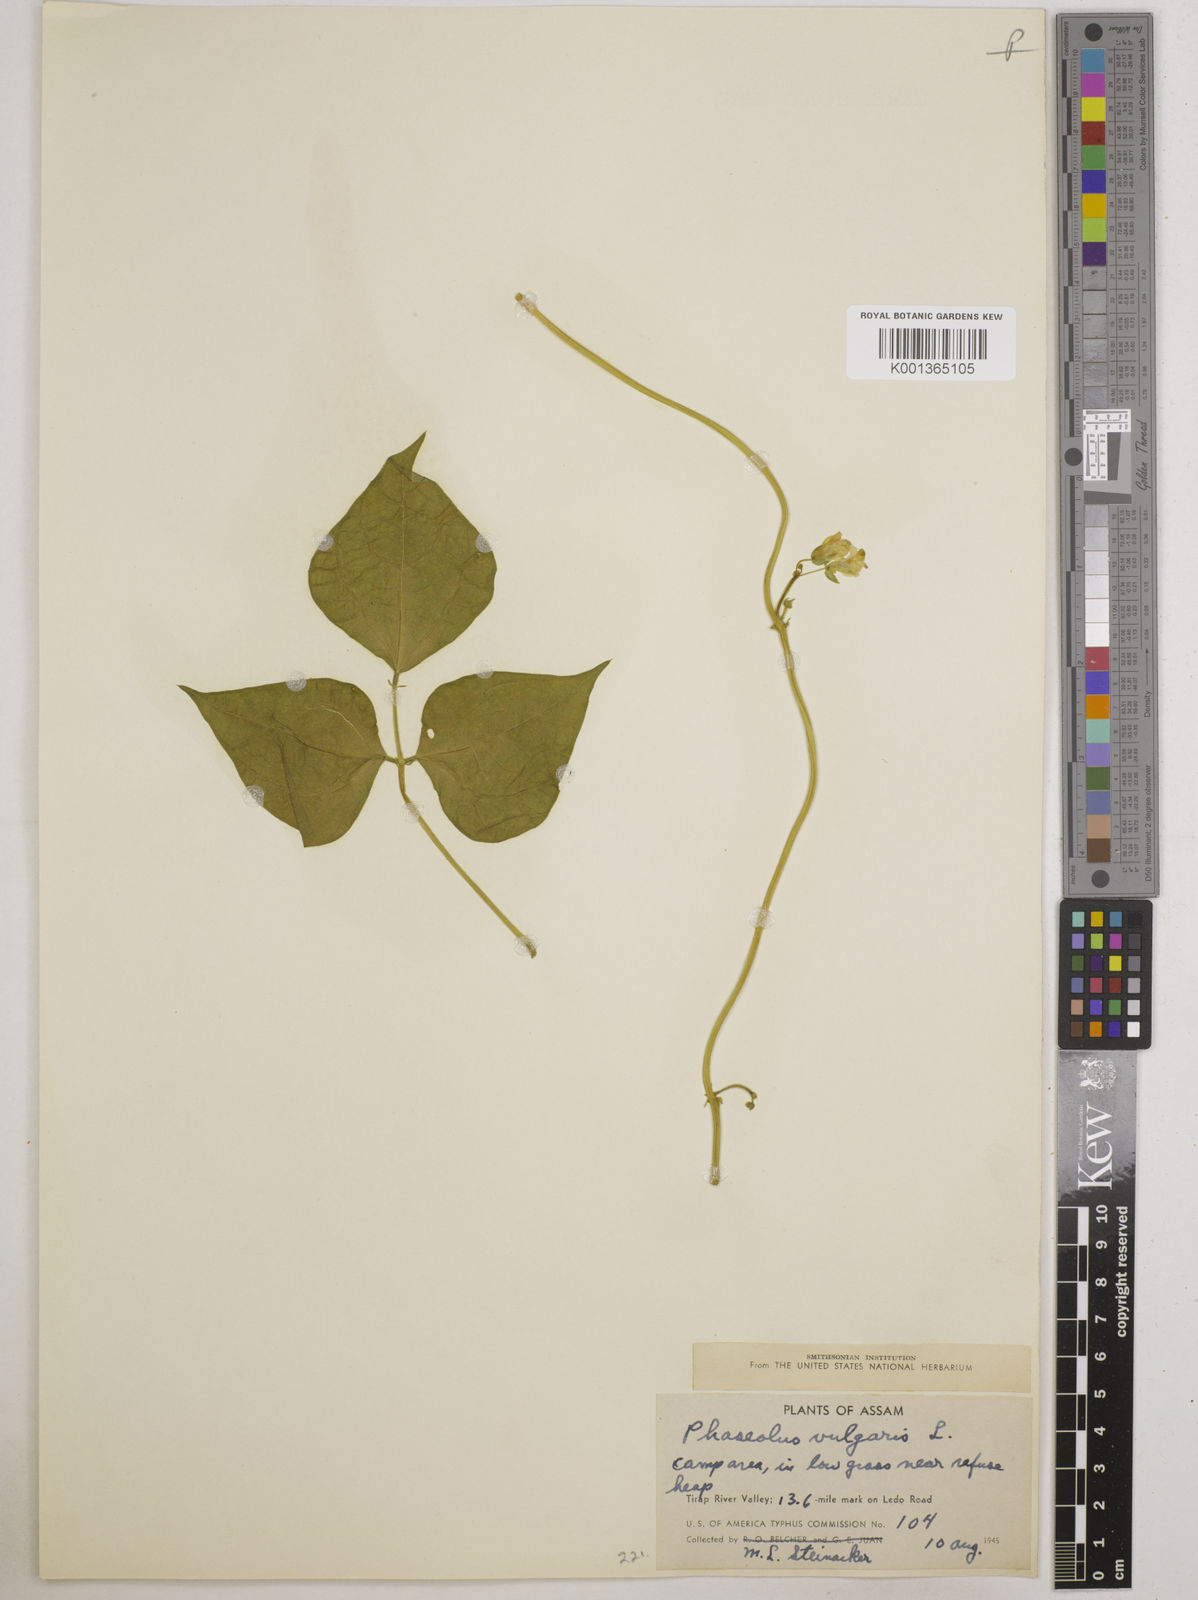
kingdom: Plantae
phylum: Tracheophyta
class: Magnoliopsida
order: Fabales
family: Fabaceae
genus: Phaseolus
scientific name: Phaseolus vulgaris
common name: Bean
